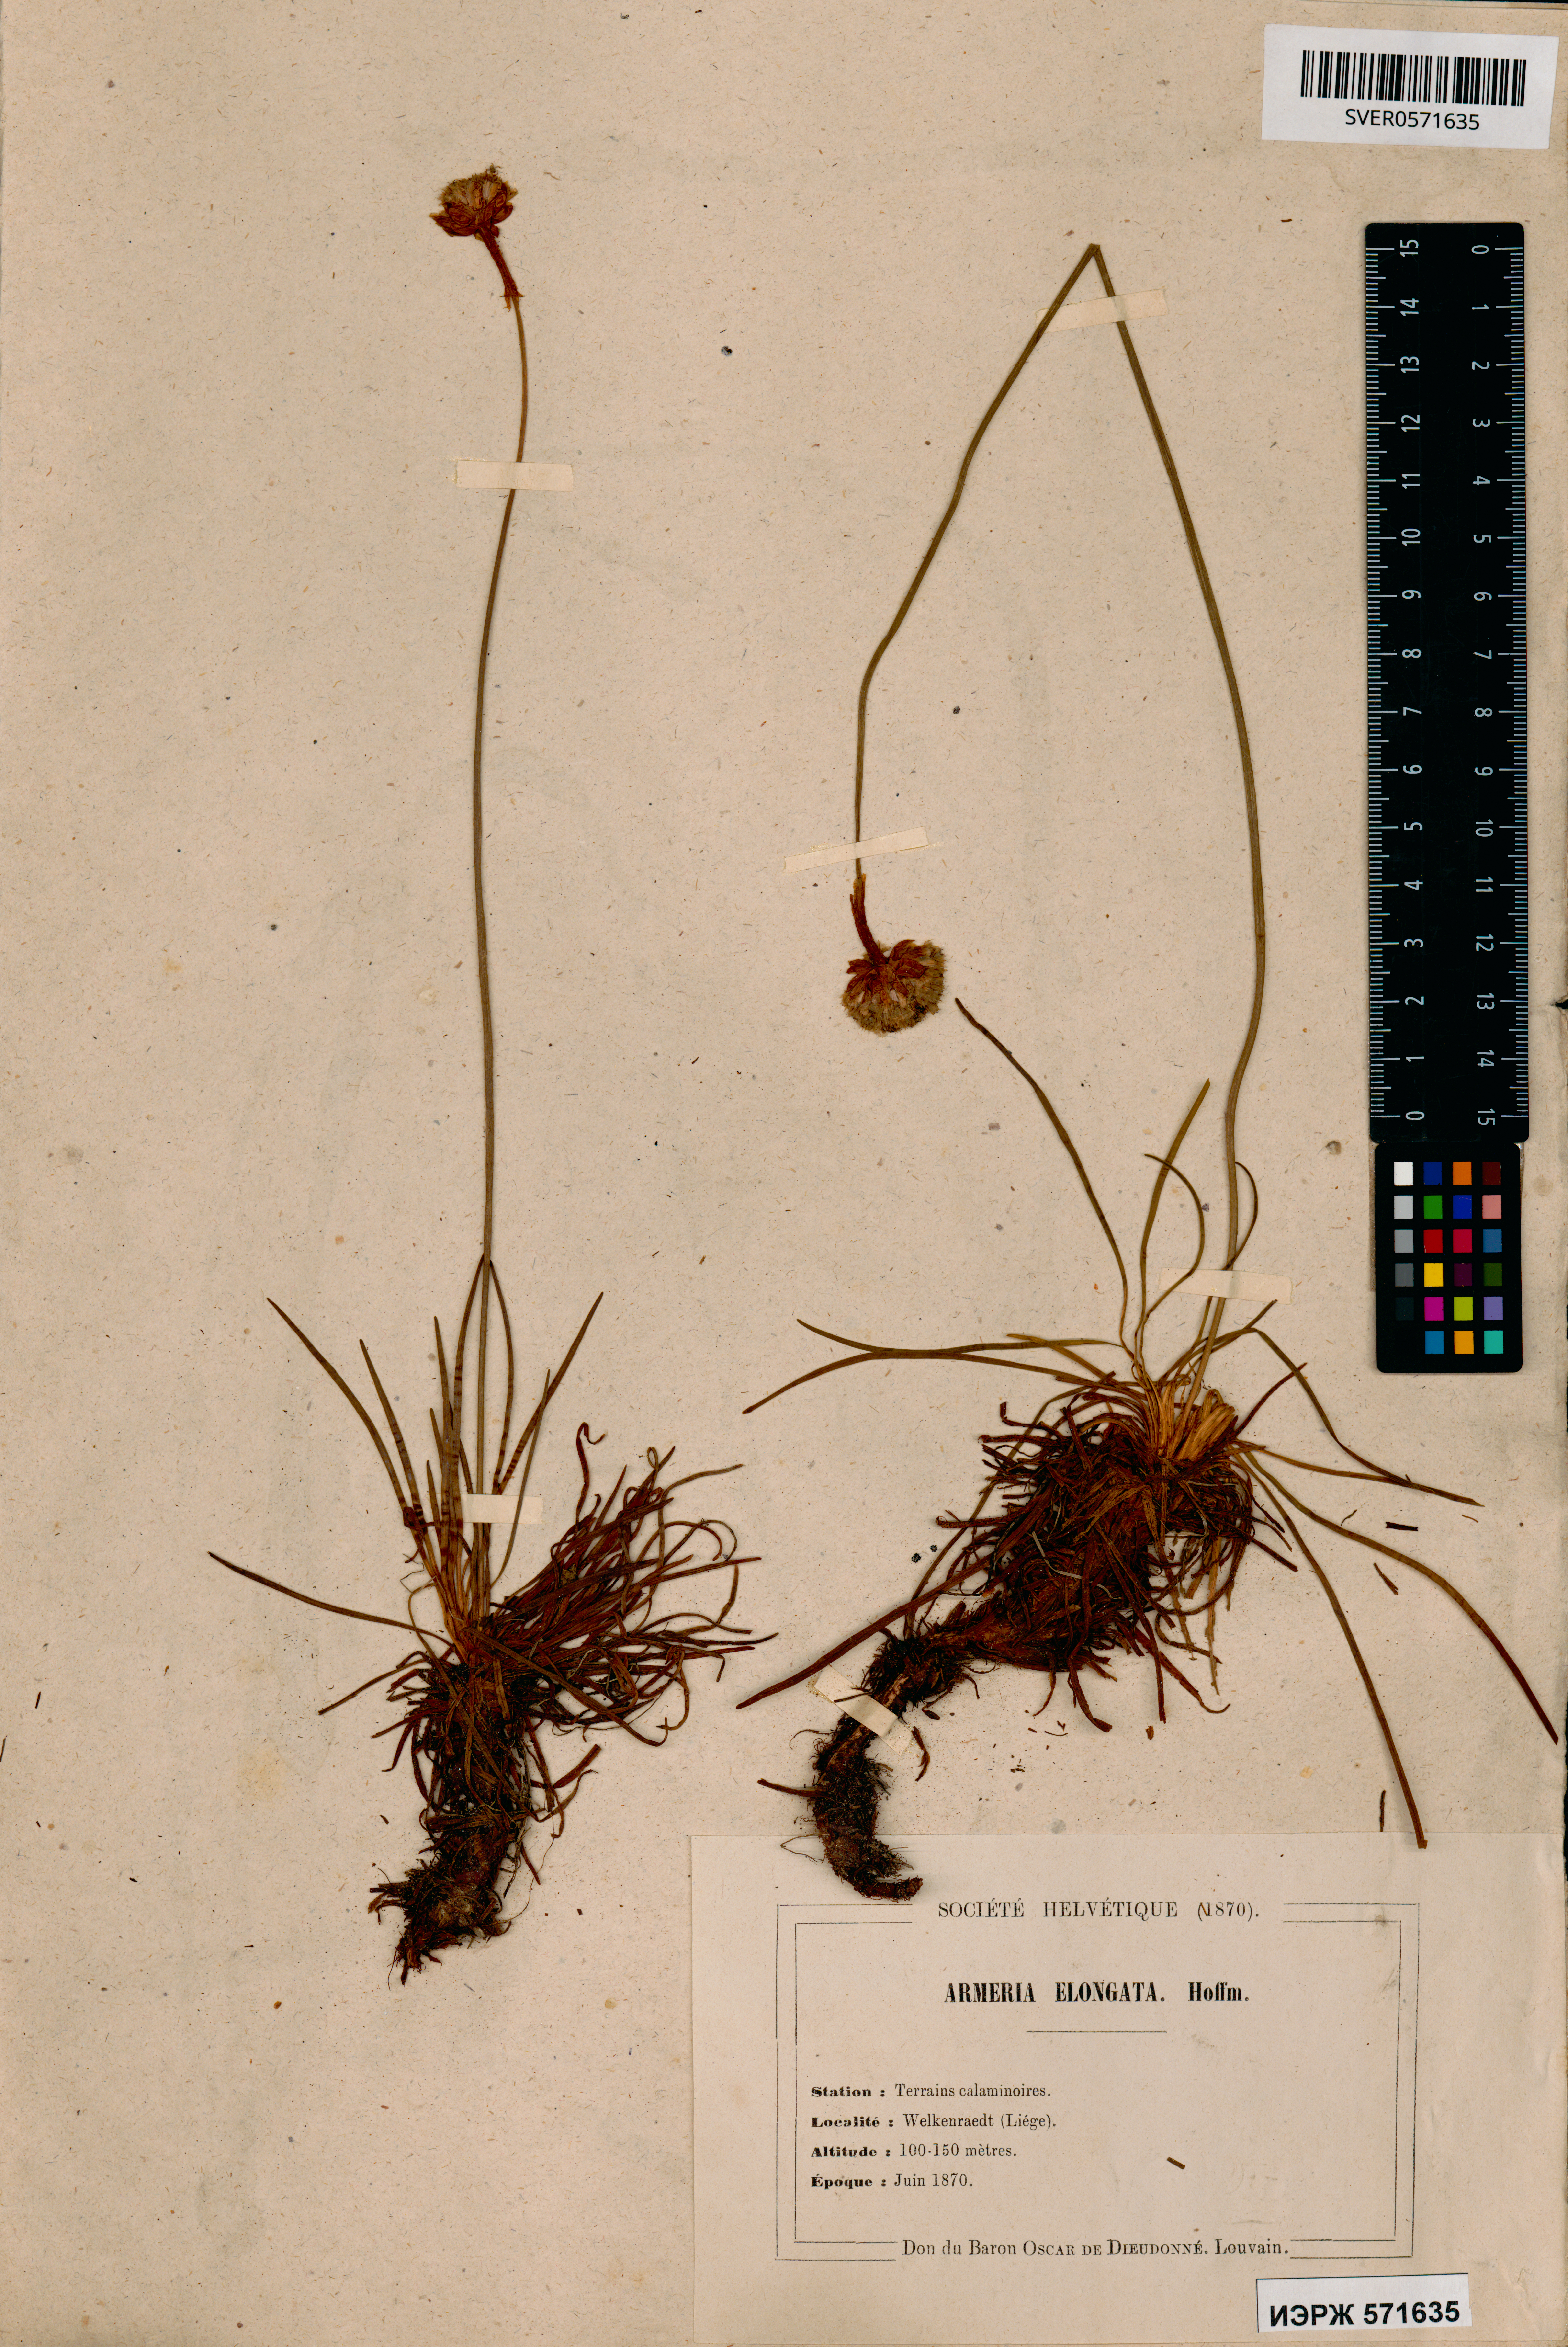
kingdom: Plantae
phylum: Tracheophyta
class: Magnoliopsida
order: Caryophyllales
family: Plumbaginaceae
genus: Armeria
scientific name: Armeria maritima
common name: Thrift
